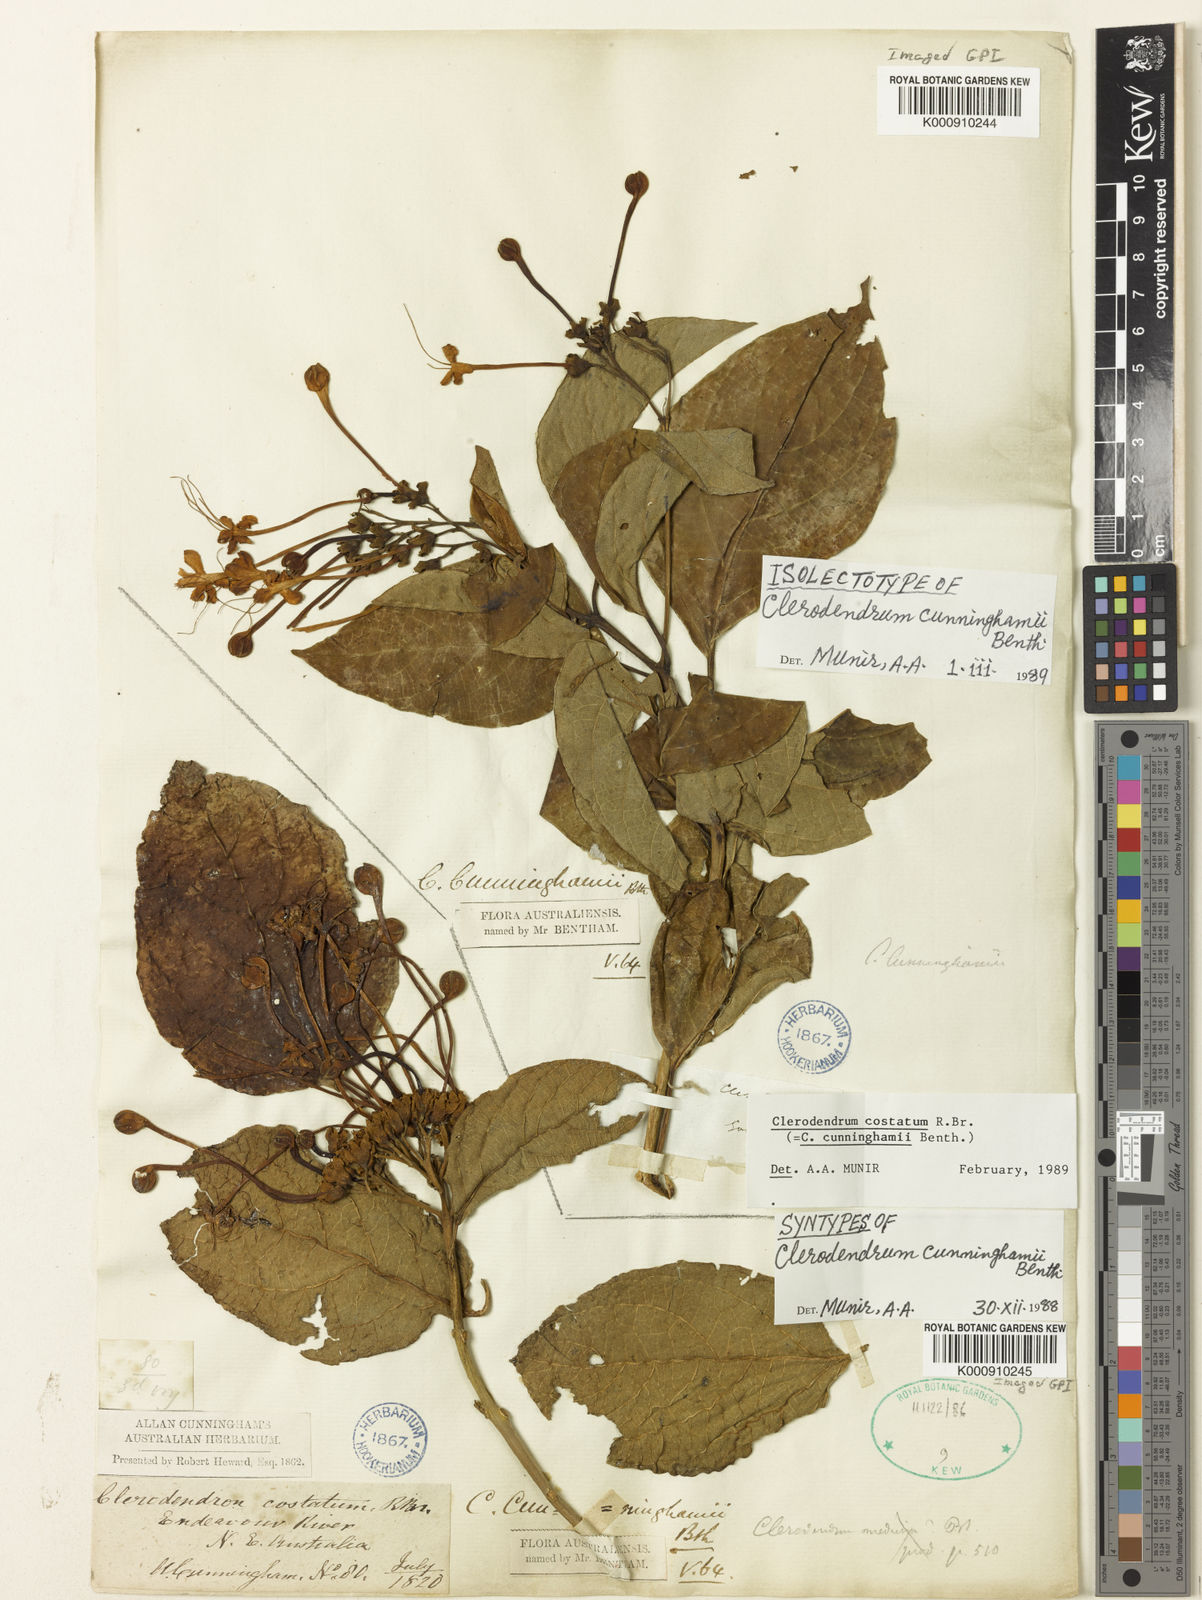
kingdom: Plantae
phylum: Tracheophyta
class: Magnoliopsida
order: Lamiales
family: Lamiaceae
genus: Clerodendrum
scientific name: Clerodendrum
